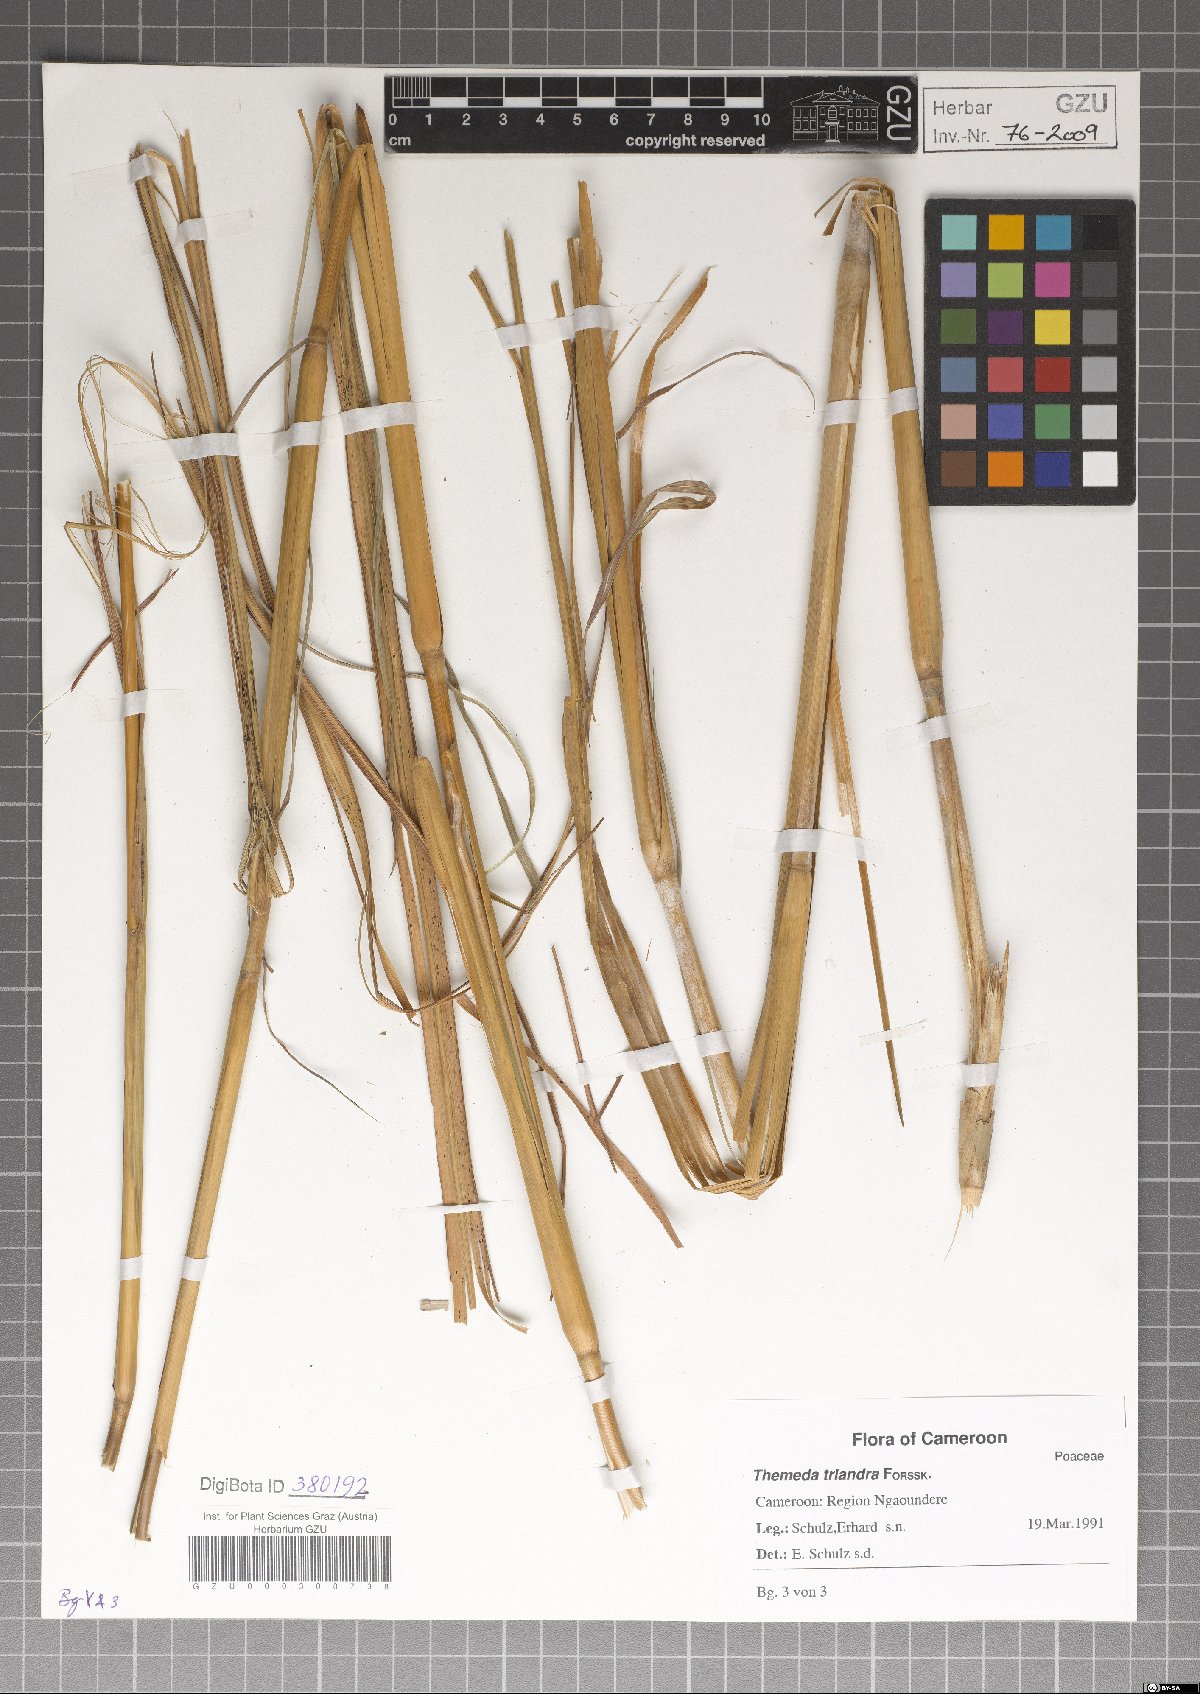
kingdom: Plantae
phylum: Tracheophyta
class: Liliopsida
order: Poales
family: Poaceae
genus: Themeda
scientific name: Themeda triandra
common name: Kangaroo grass
